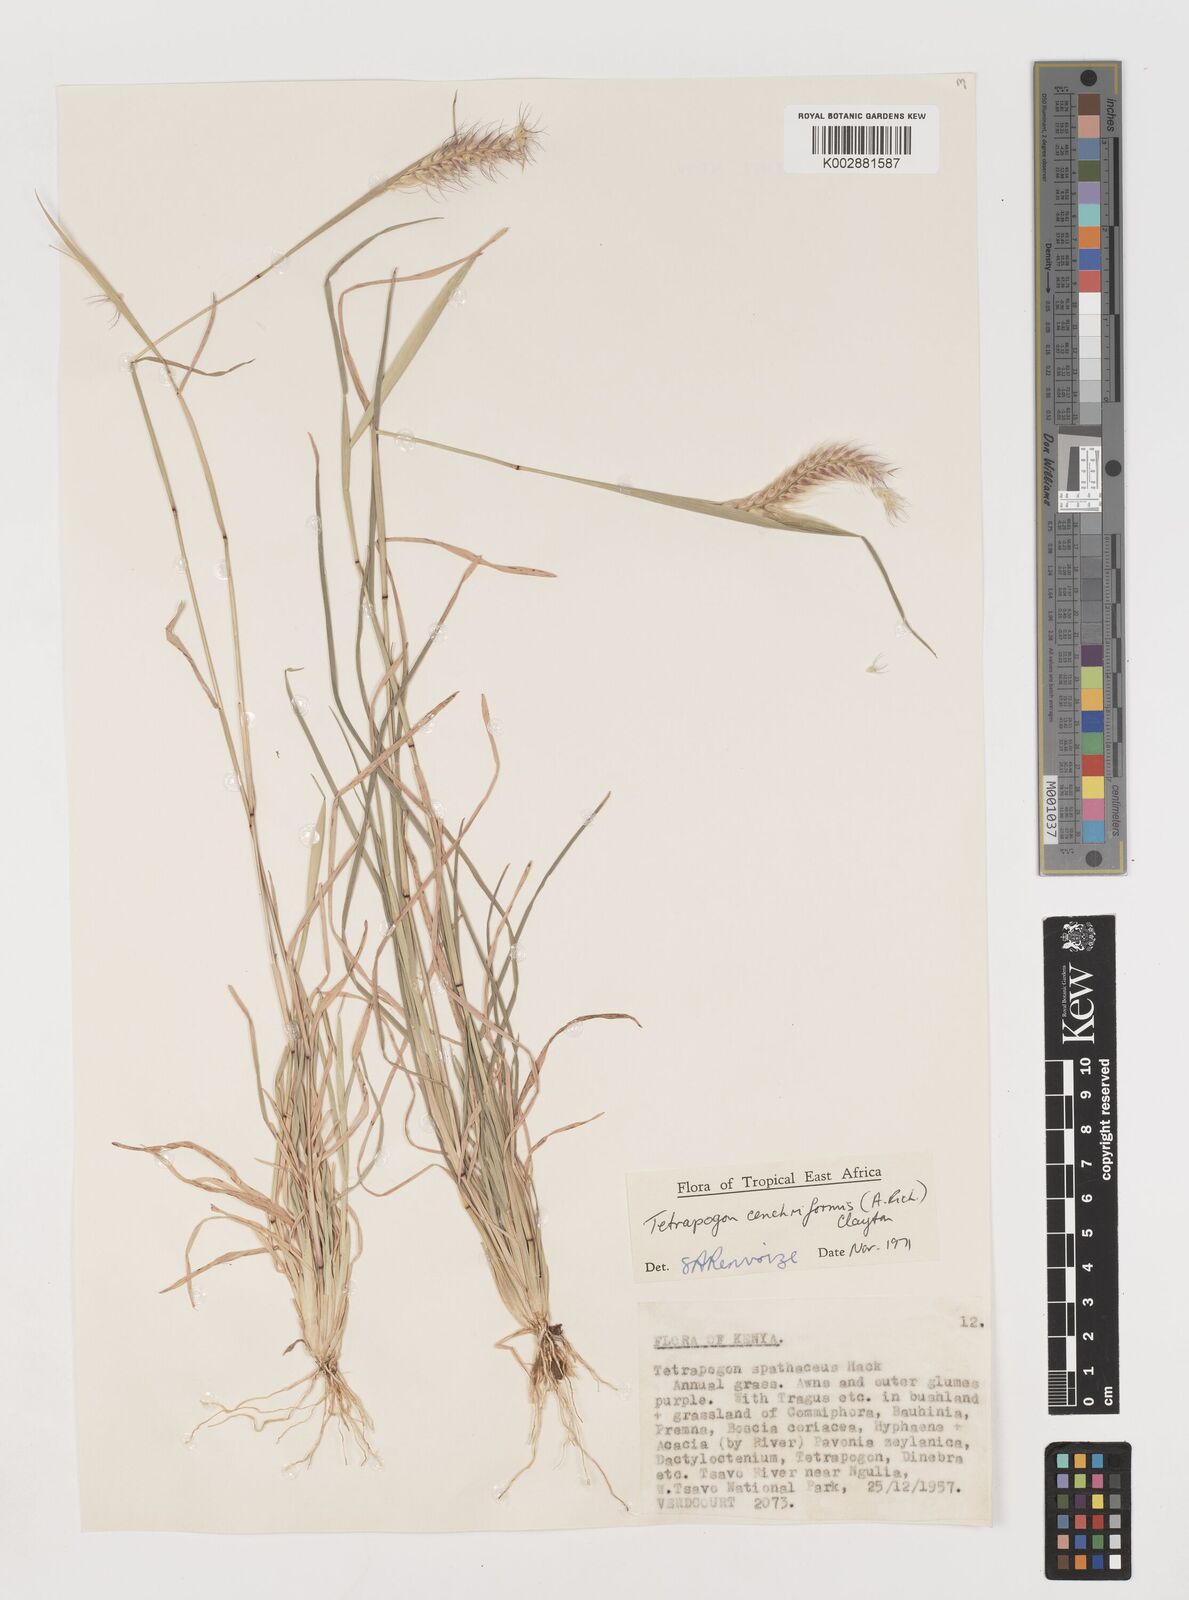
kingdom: Plantae
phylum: Tracheophyta
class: Liliopsida
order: Poales
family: Poaceae
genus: Tetrapogon
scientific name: Tetrapogon cenchriformis
